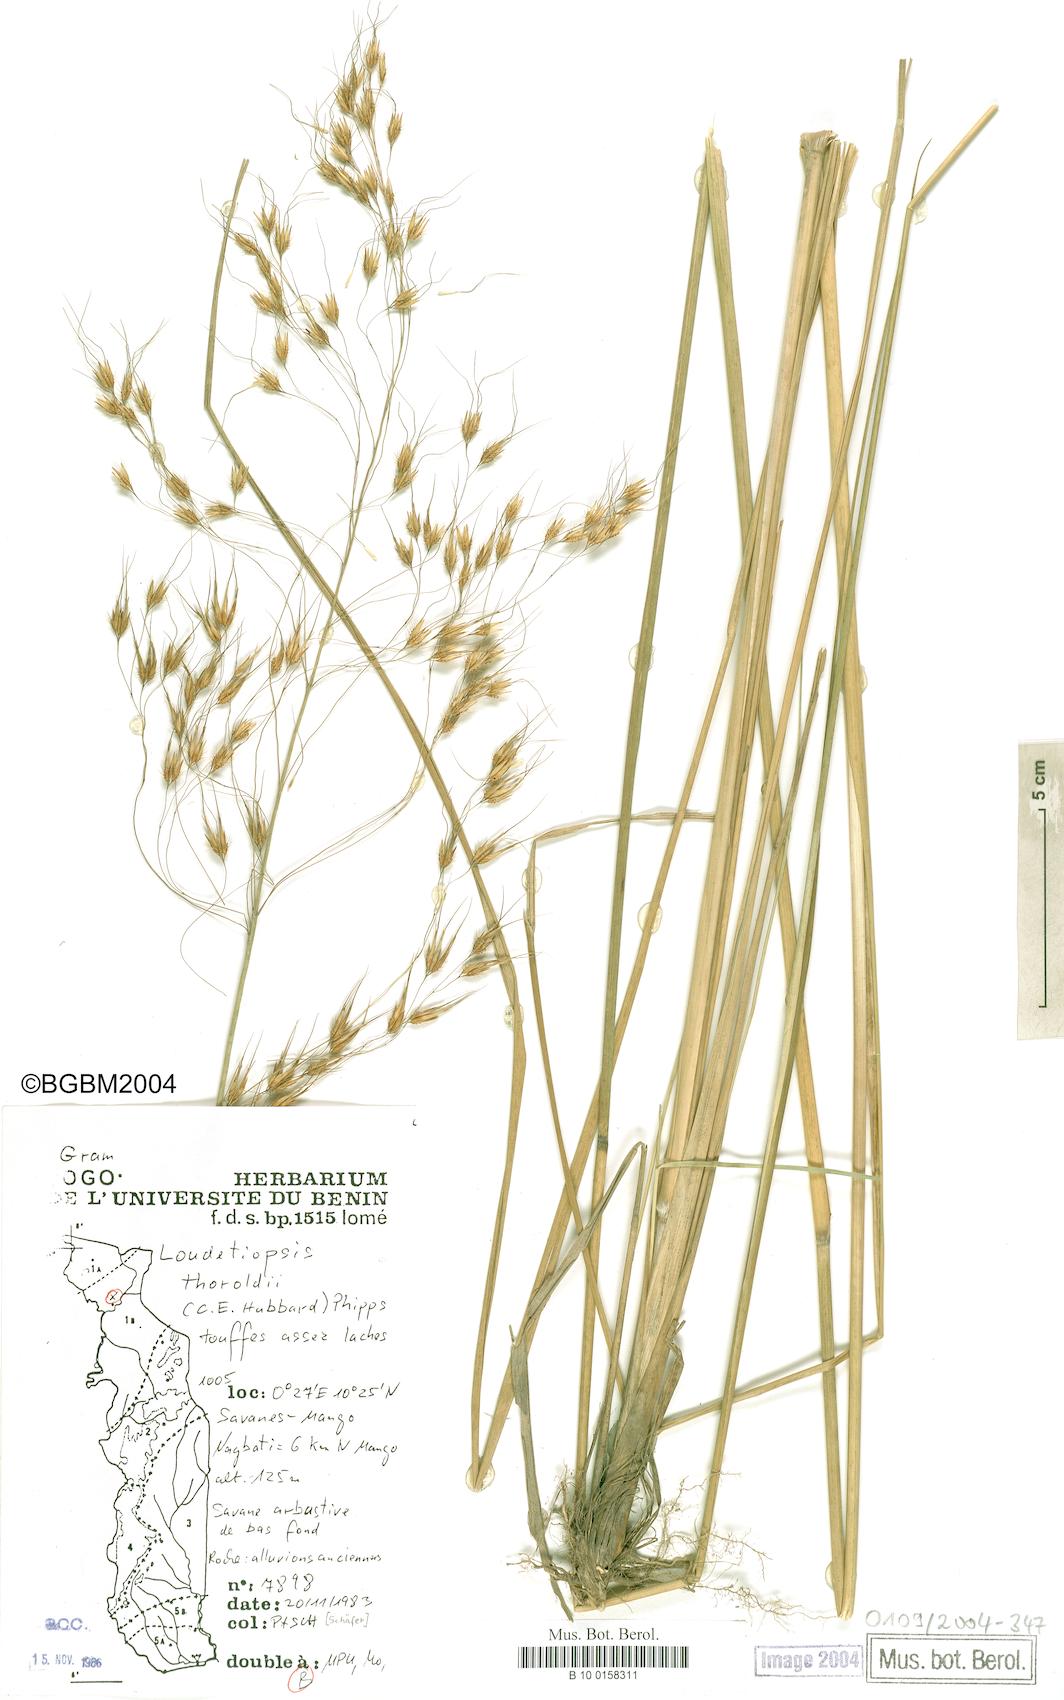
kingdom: Plantae
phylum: Tracheophyta
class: Liliopsida
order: Poales
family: Poaceae
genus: Loudetiopsis
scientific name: Loudetiopsis thoroldii
